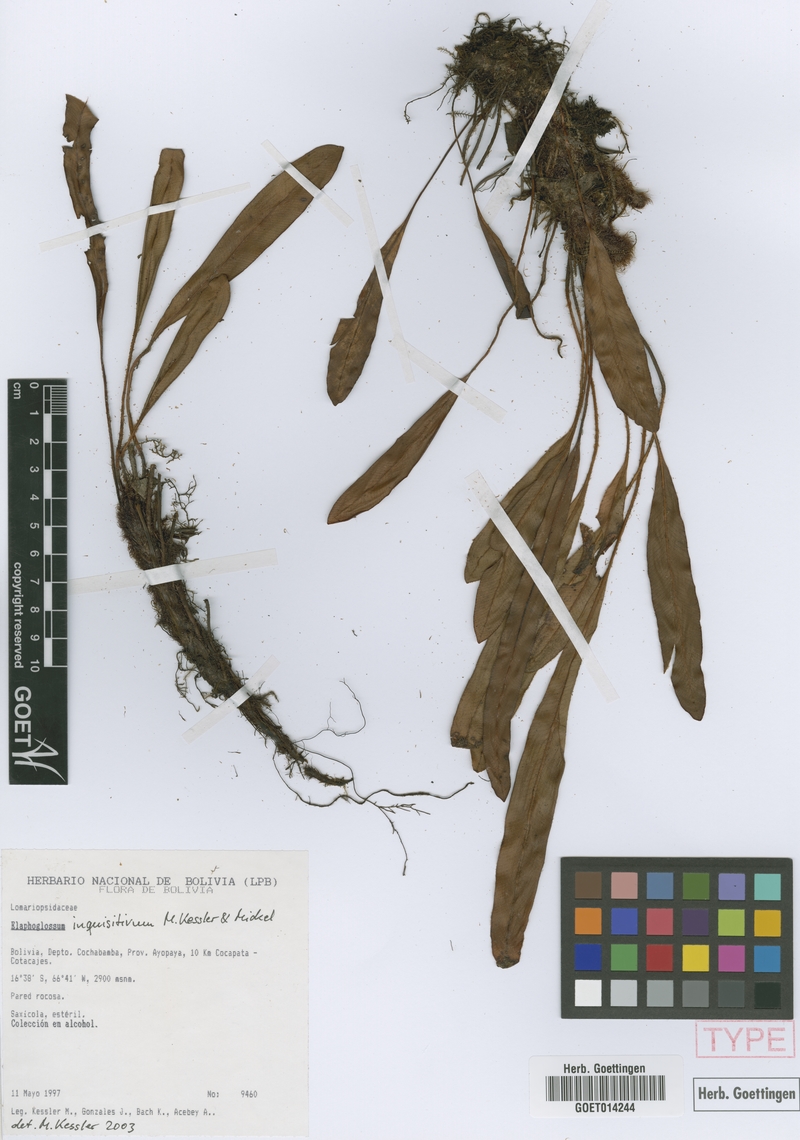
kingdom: Plantae
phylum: Tracheophyta
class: Polypodiopsida
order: Polypodiales
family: Dryopteridaceae
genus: Elaphoglossum
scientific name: Elaphoglossum inquisitivum
